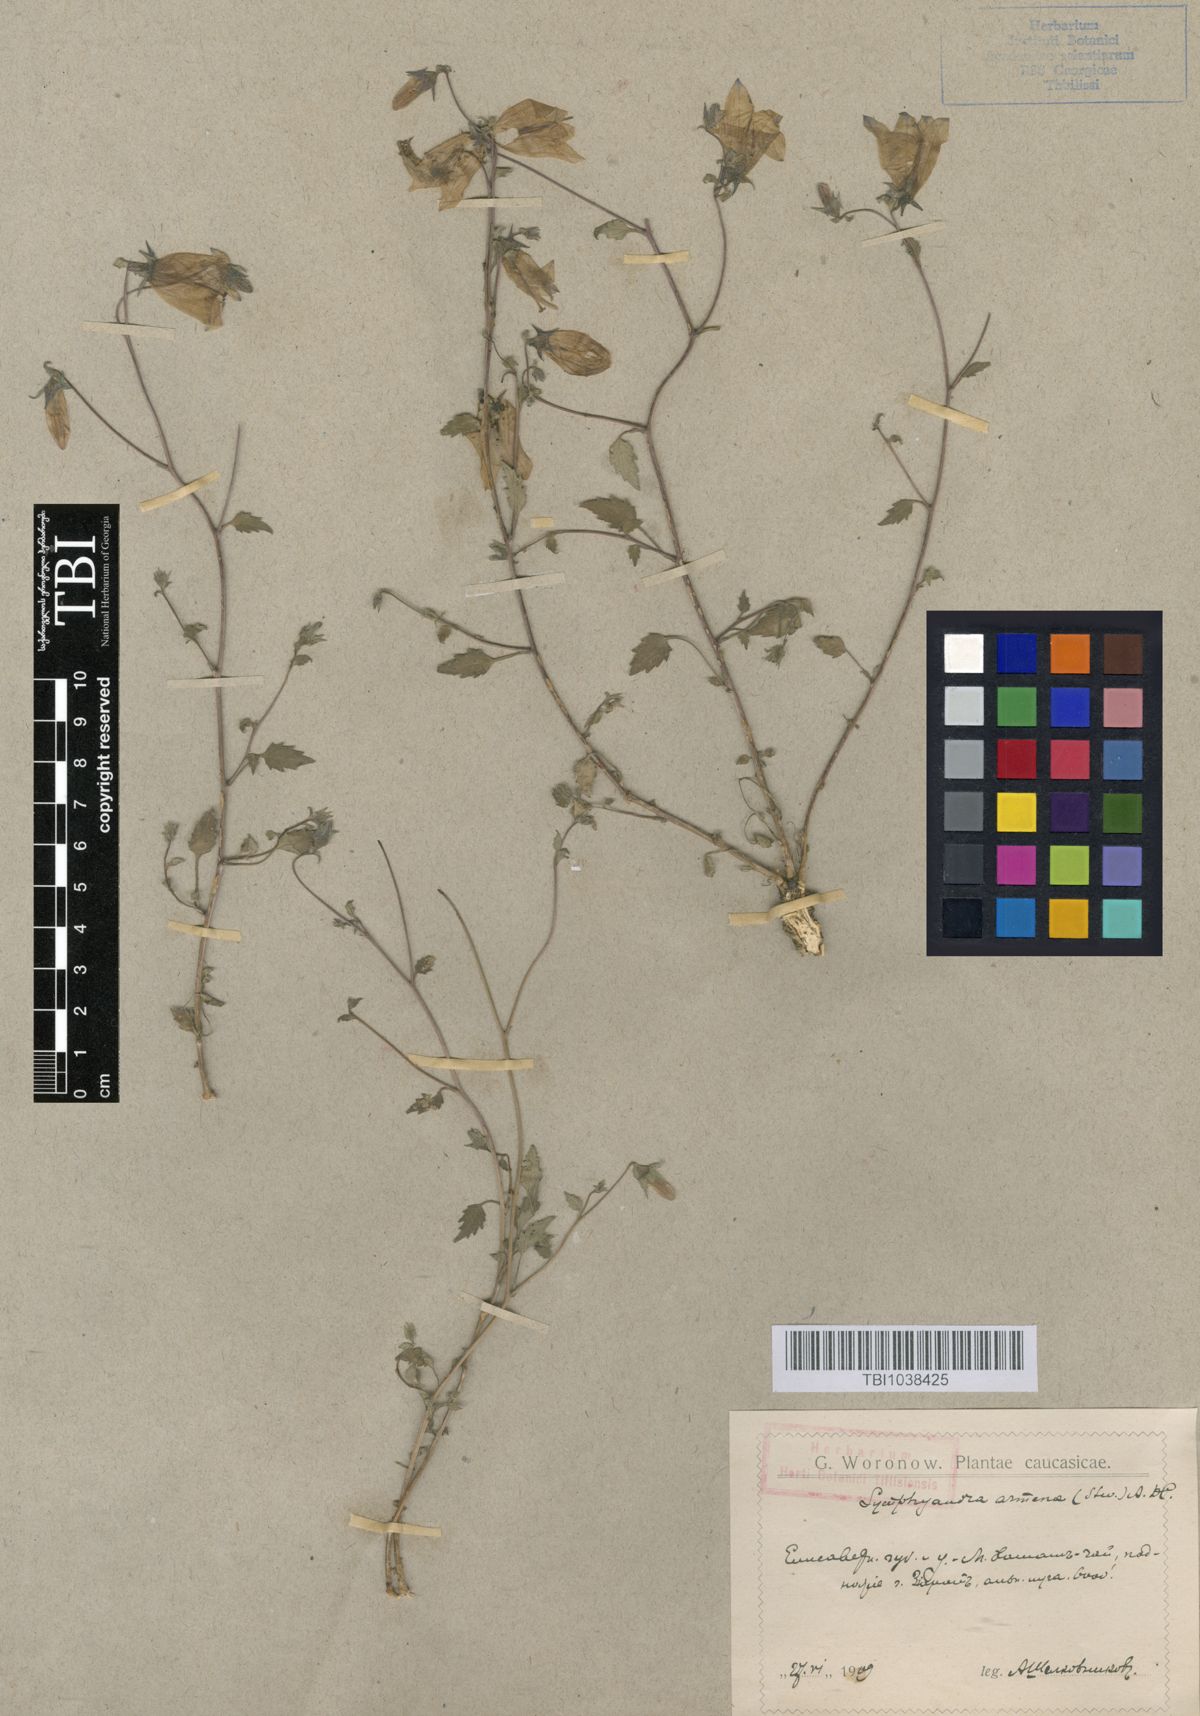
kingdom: Plantae
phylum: Tracheophyta
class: Magnoliopsida
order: Asterales
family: Campanulaceae
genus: Campanula
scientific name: Campanula armena
